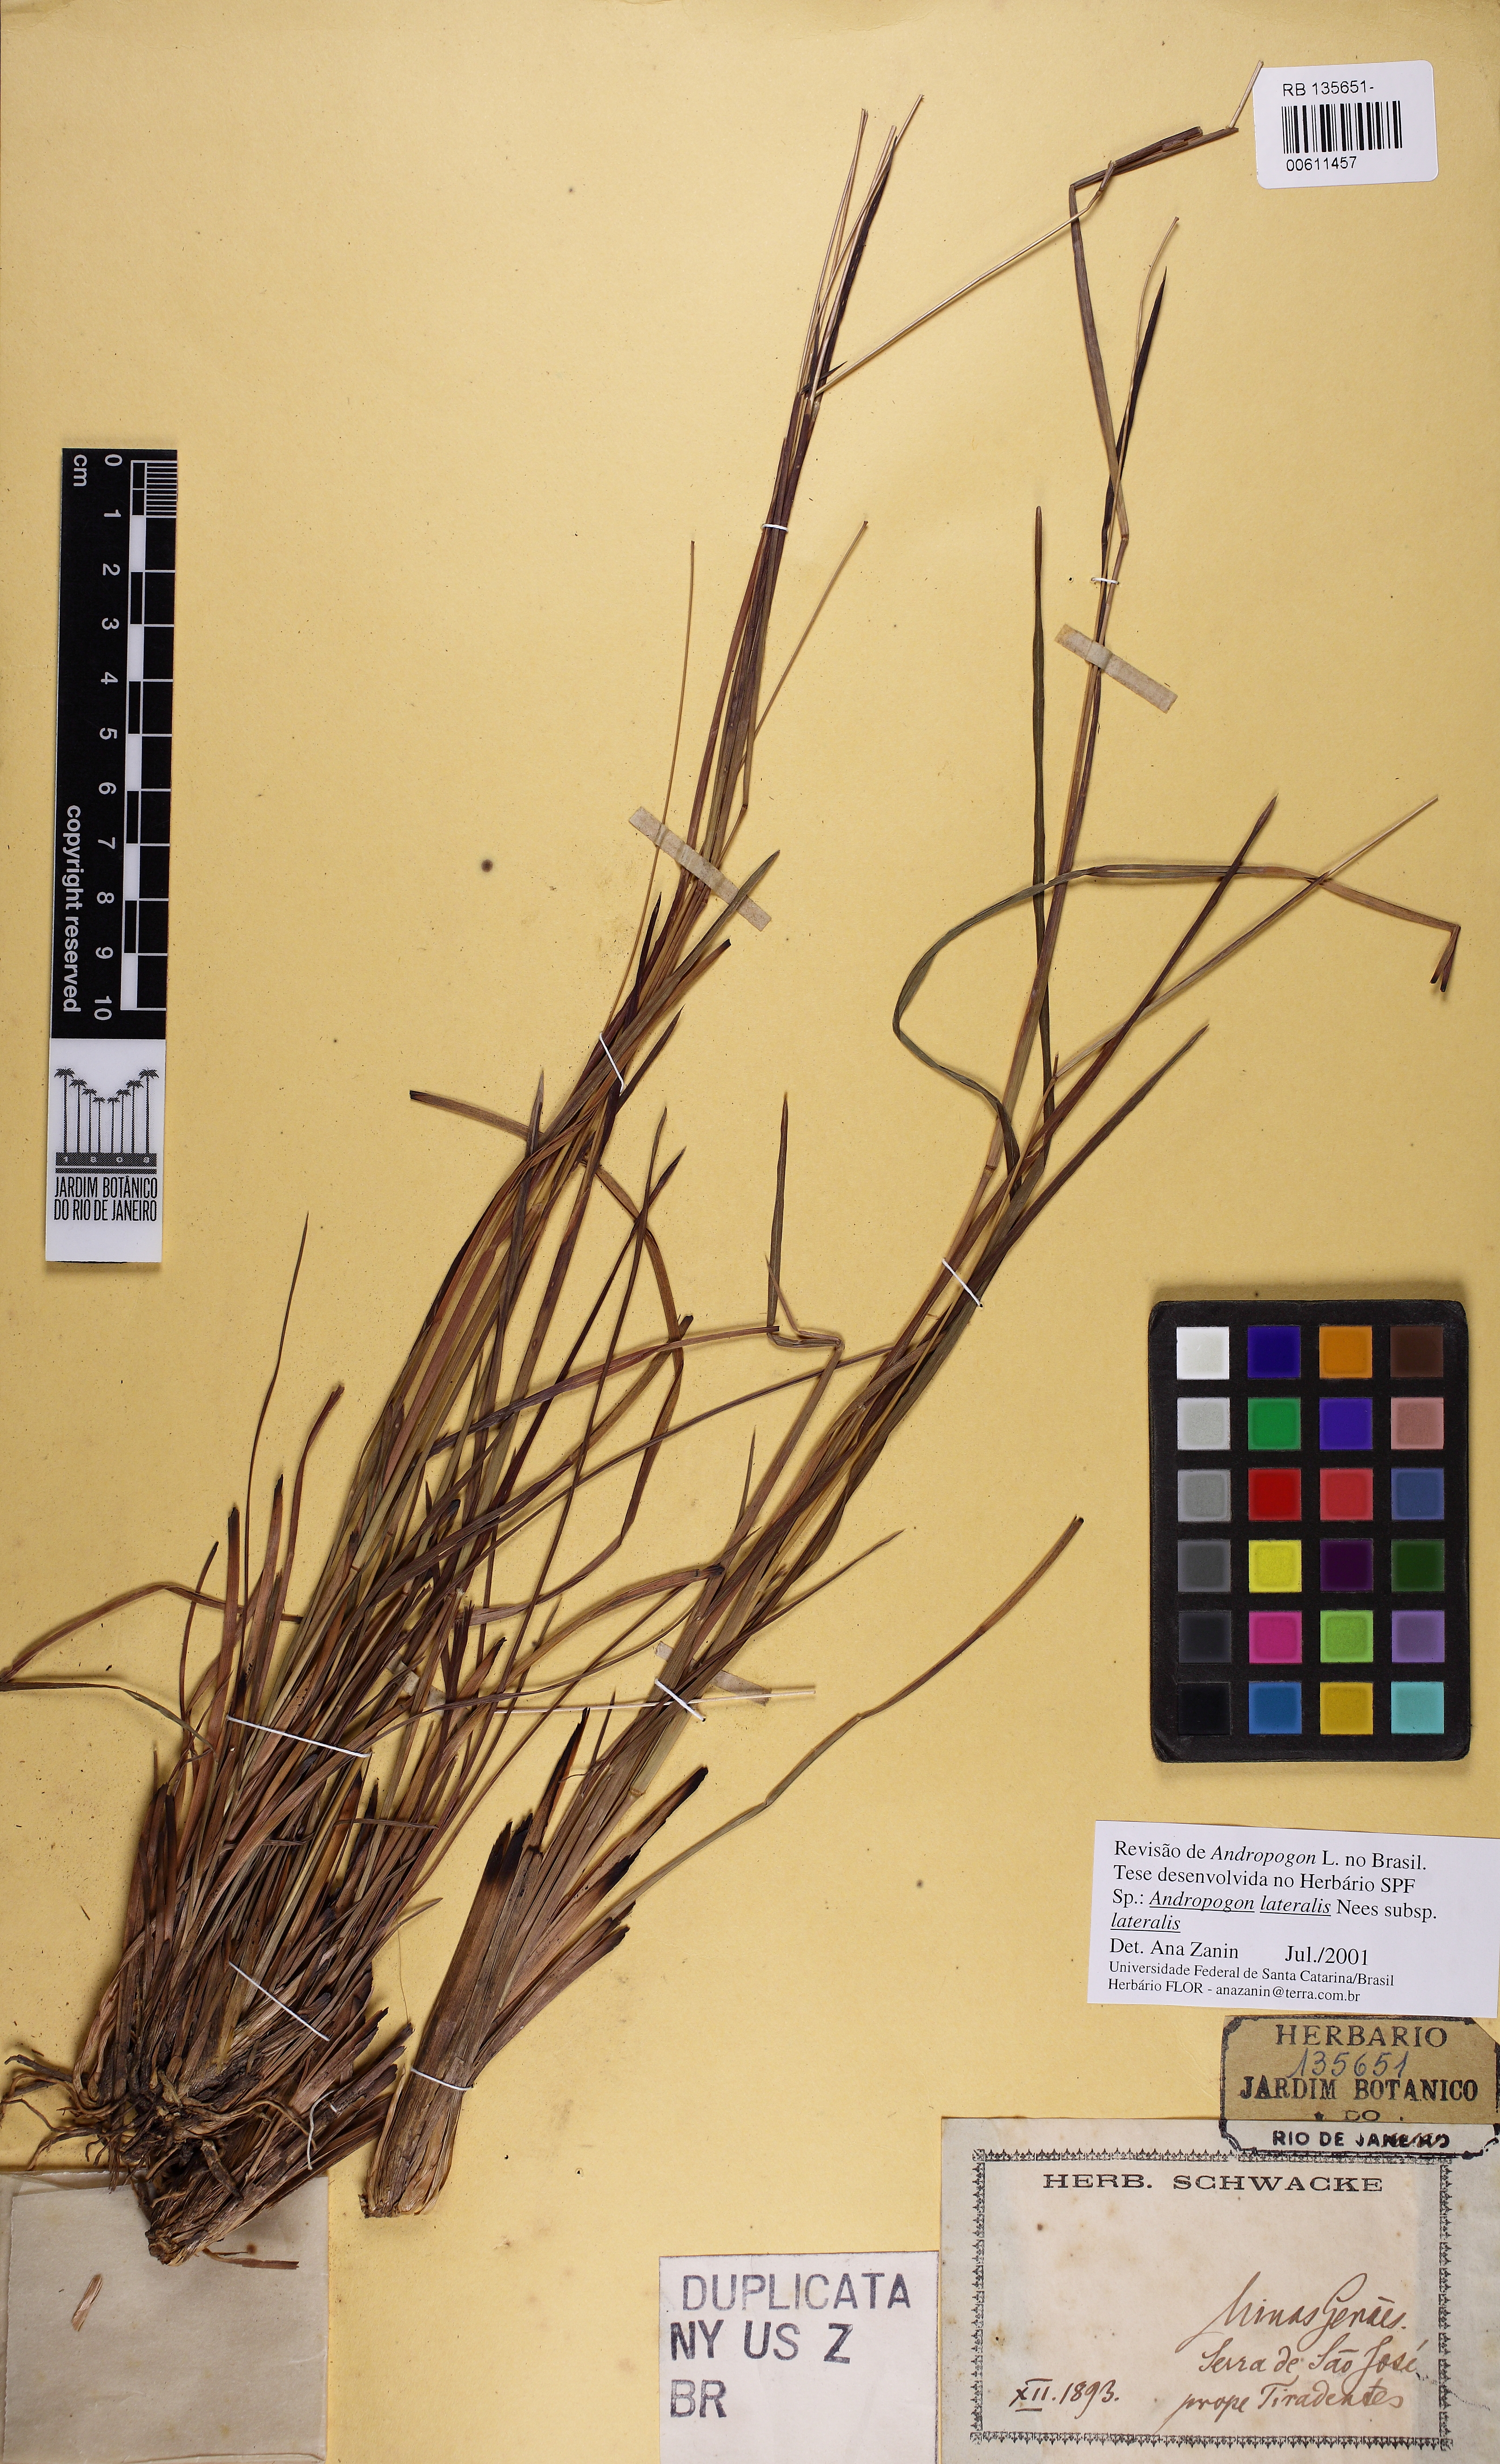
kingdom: Plantae
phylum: Tracheophyta
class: Liliopsida
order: Poales
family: Poaceae
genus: Andropogon
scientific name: Andropogon lateralis
